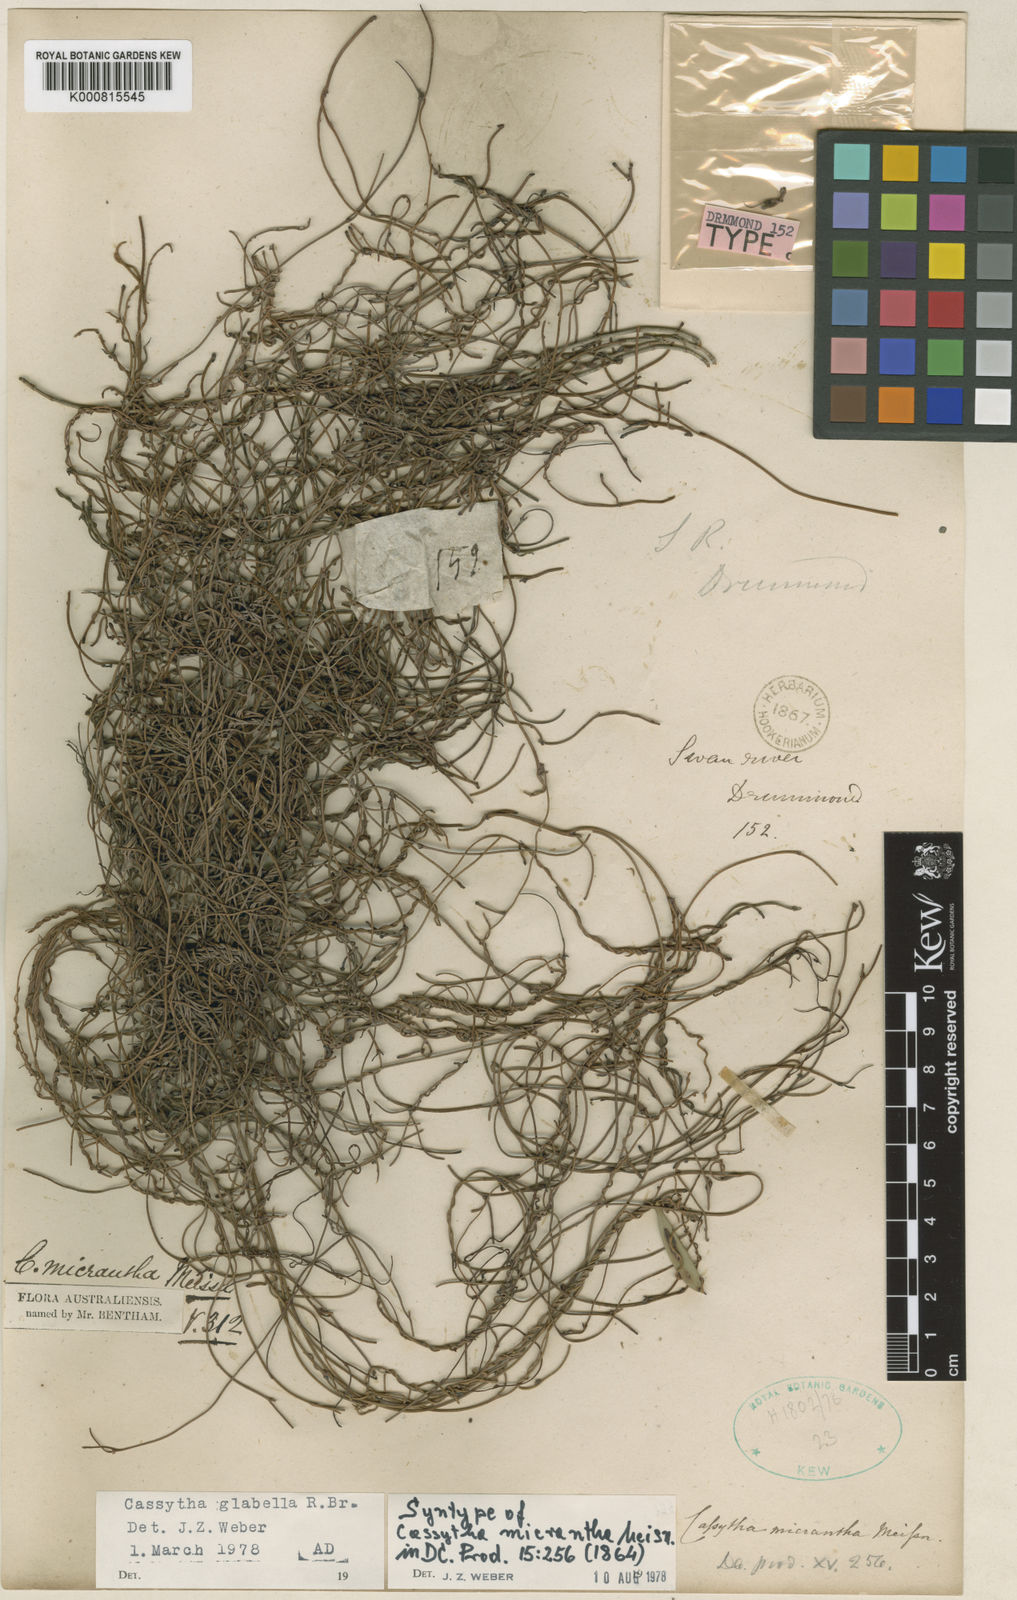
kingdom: Plantae
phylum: Tracheophyta
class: Magnoliopsida
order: Laurales
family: Lauraceae
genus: Cassytha
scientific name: Cassytha glabella
